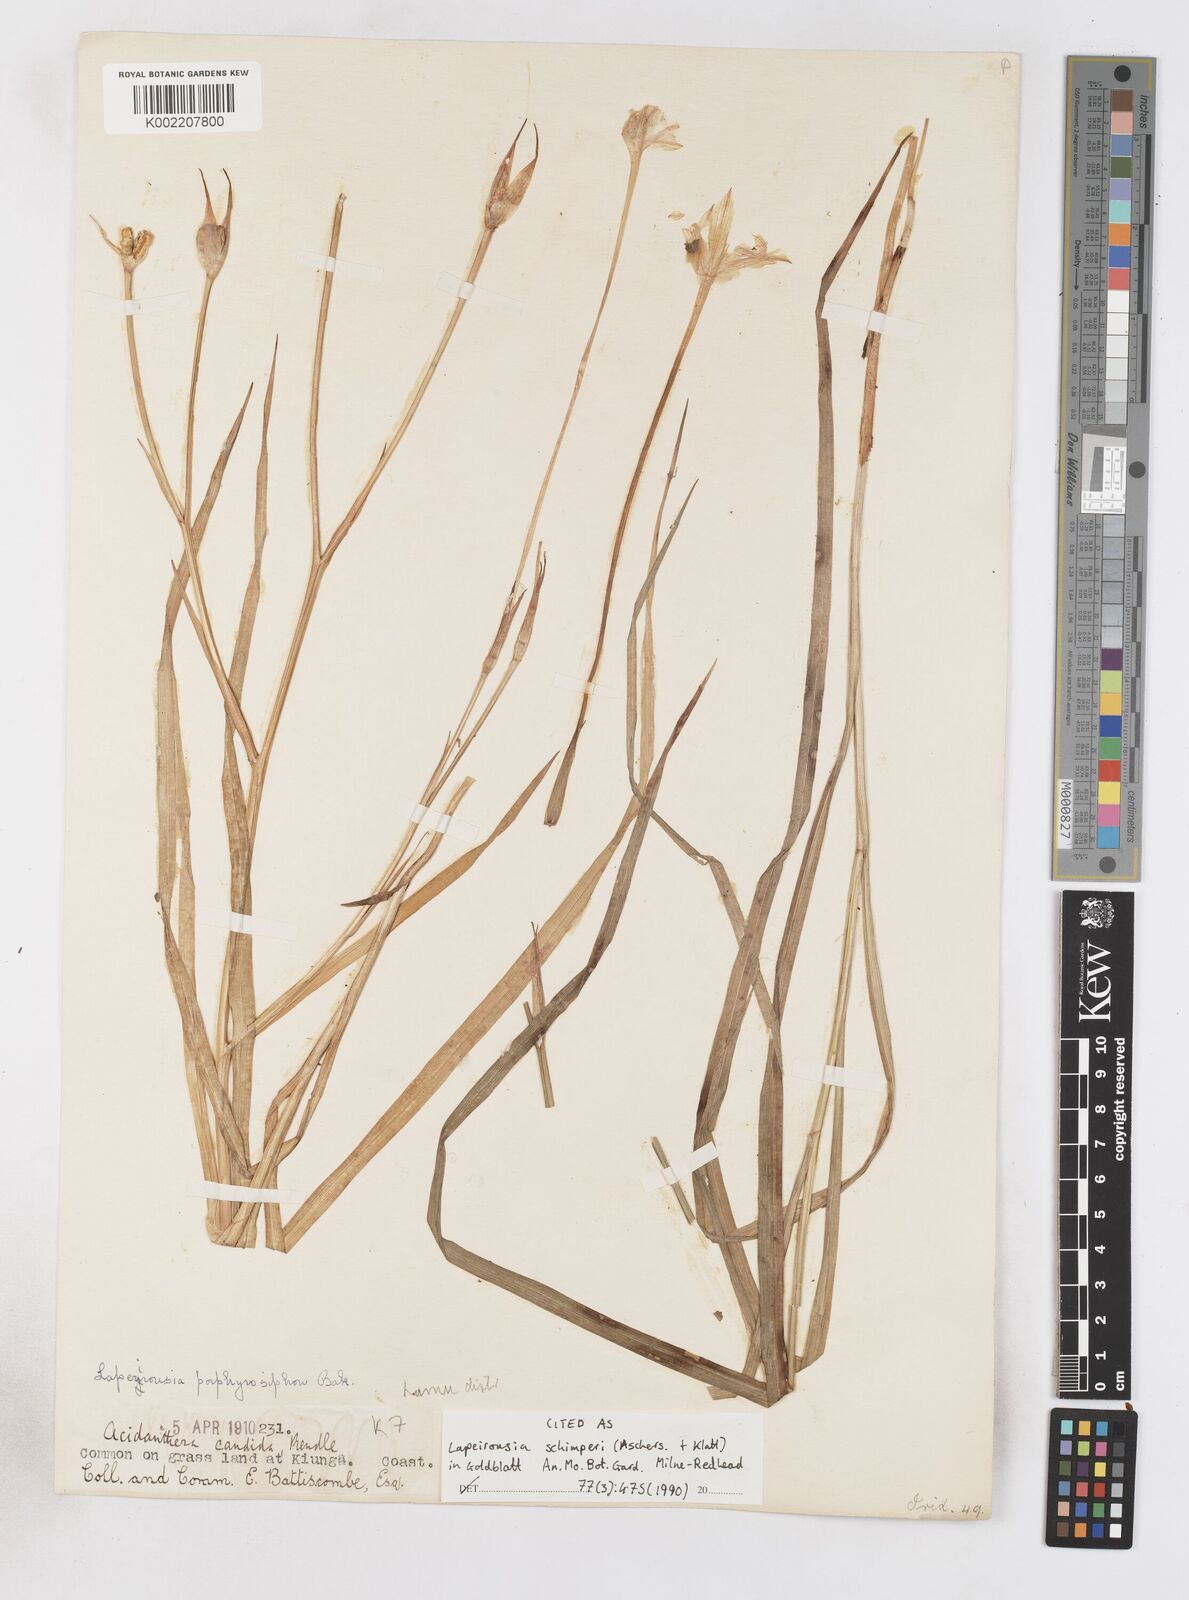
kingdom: Plantae
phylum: Tracheophyta
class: Liliopsida
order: Asparagales
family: Iridaceae
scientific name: Iridaceae
